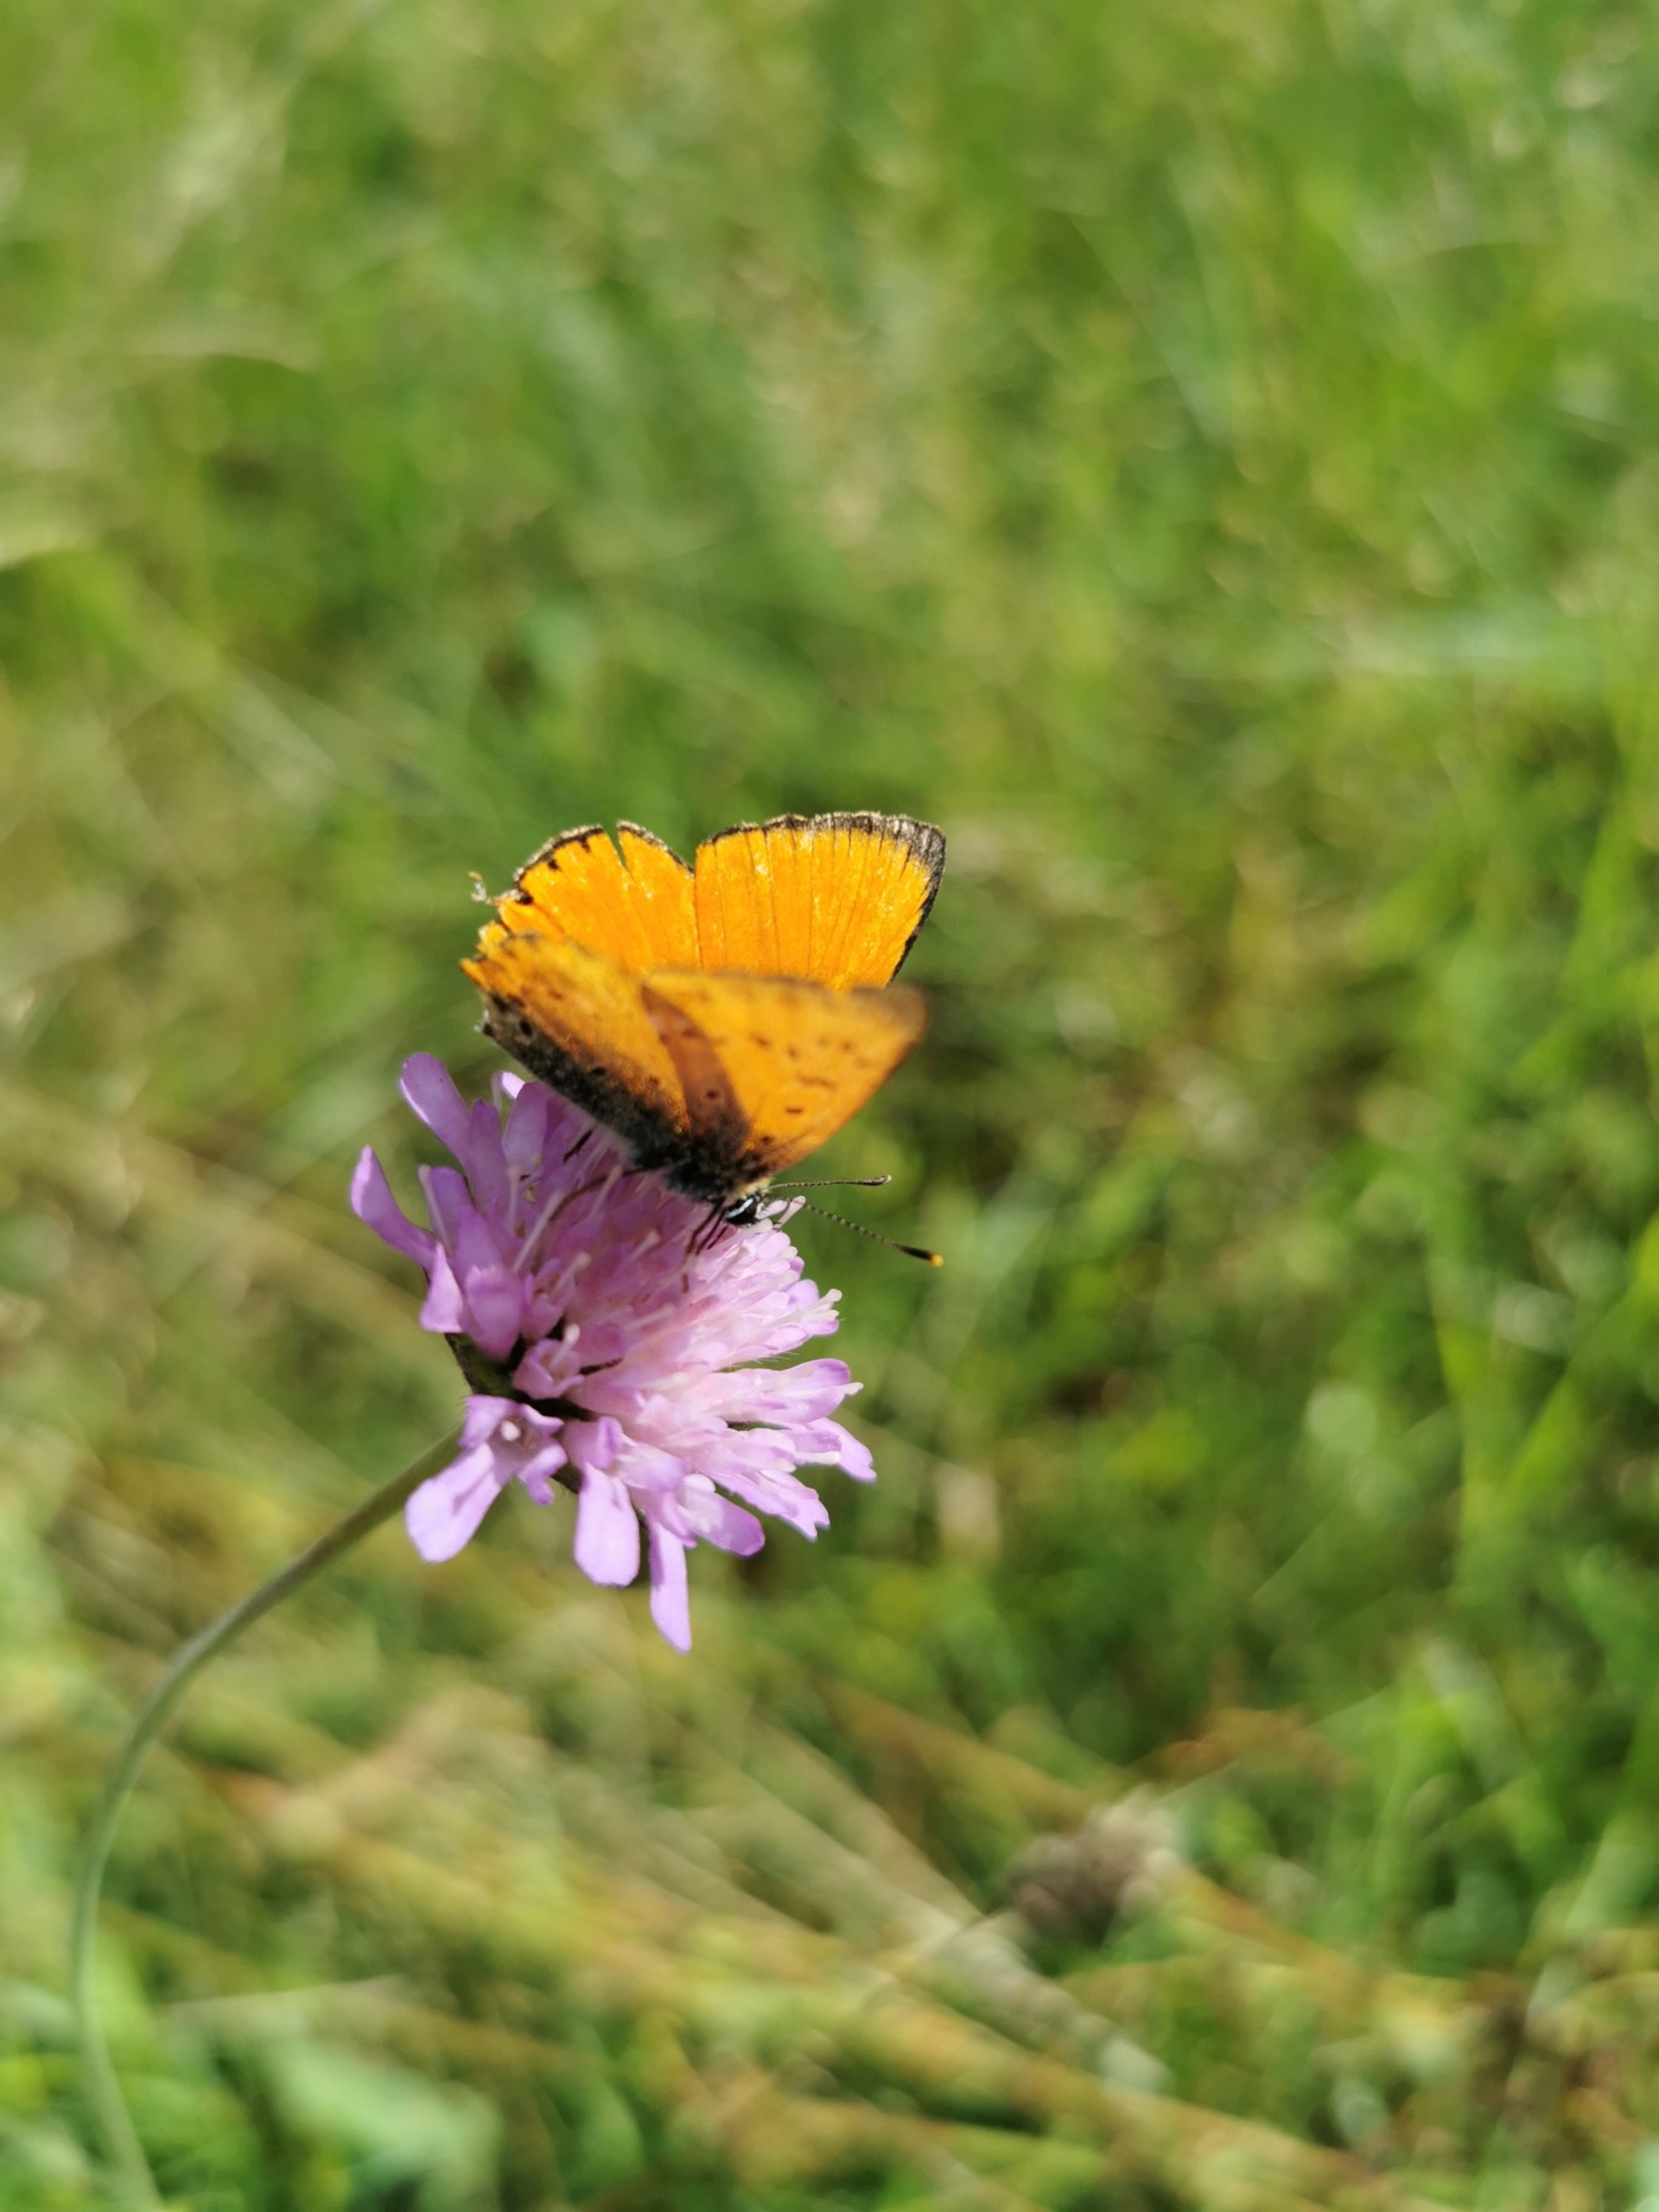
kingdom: Animalia
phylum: Arthropoda
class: Insecta
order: Lepidoptera
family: Lycaenidae
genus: Lycaena
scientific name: Lycaena virgaureae
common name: Dukatsommerfugl
